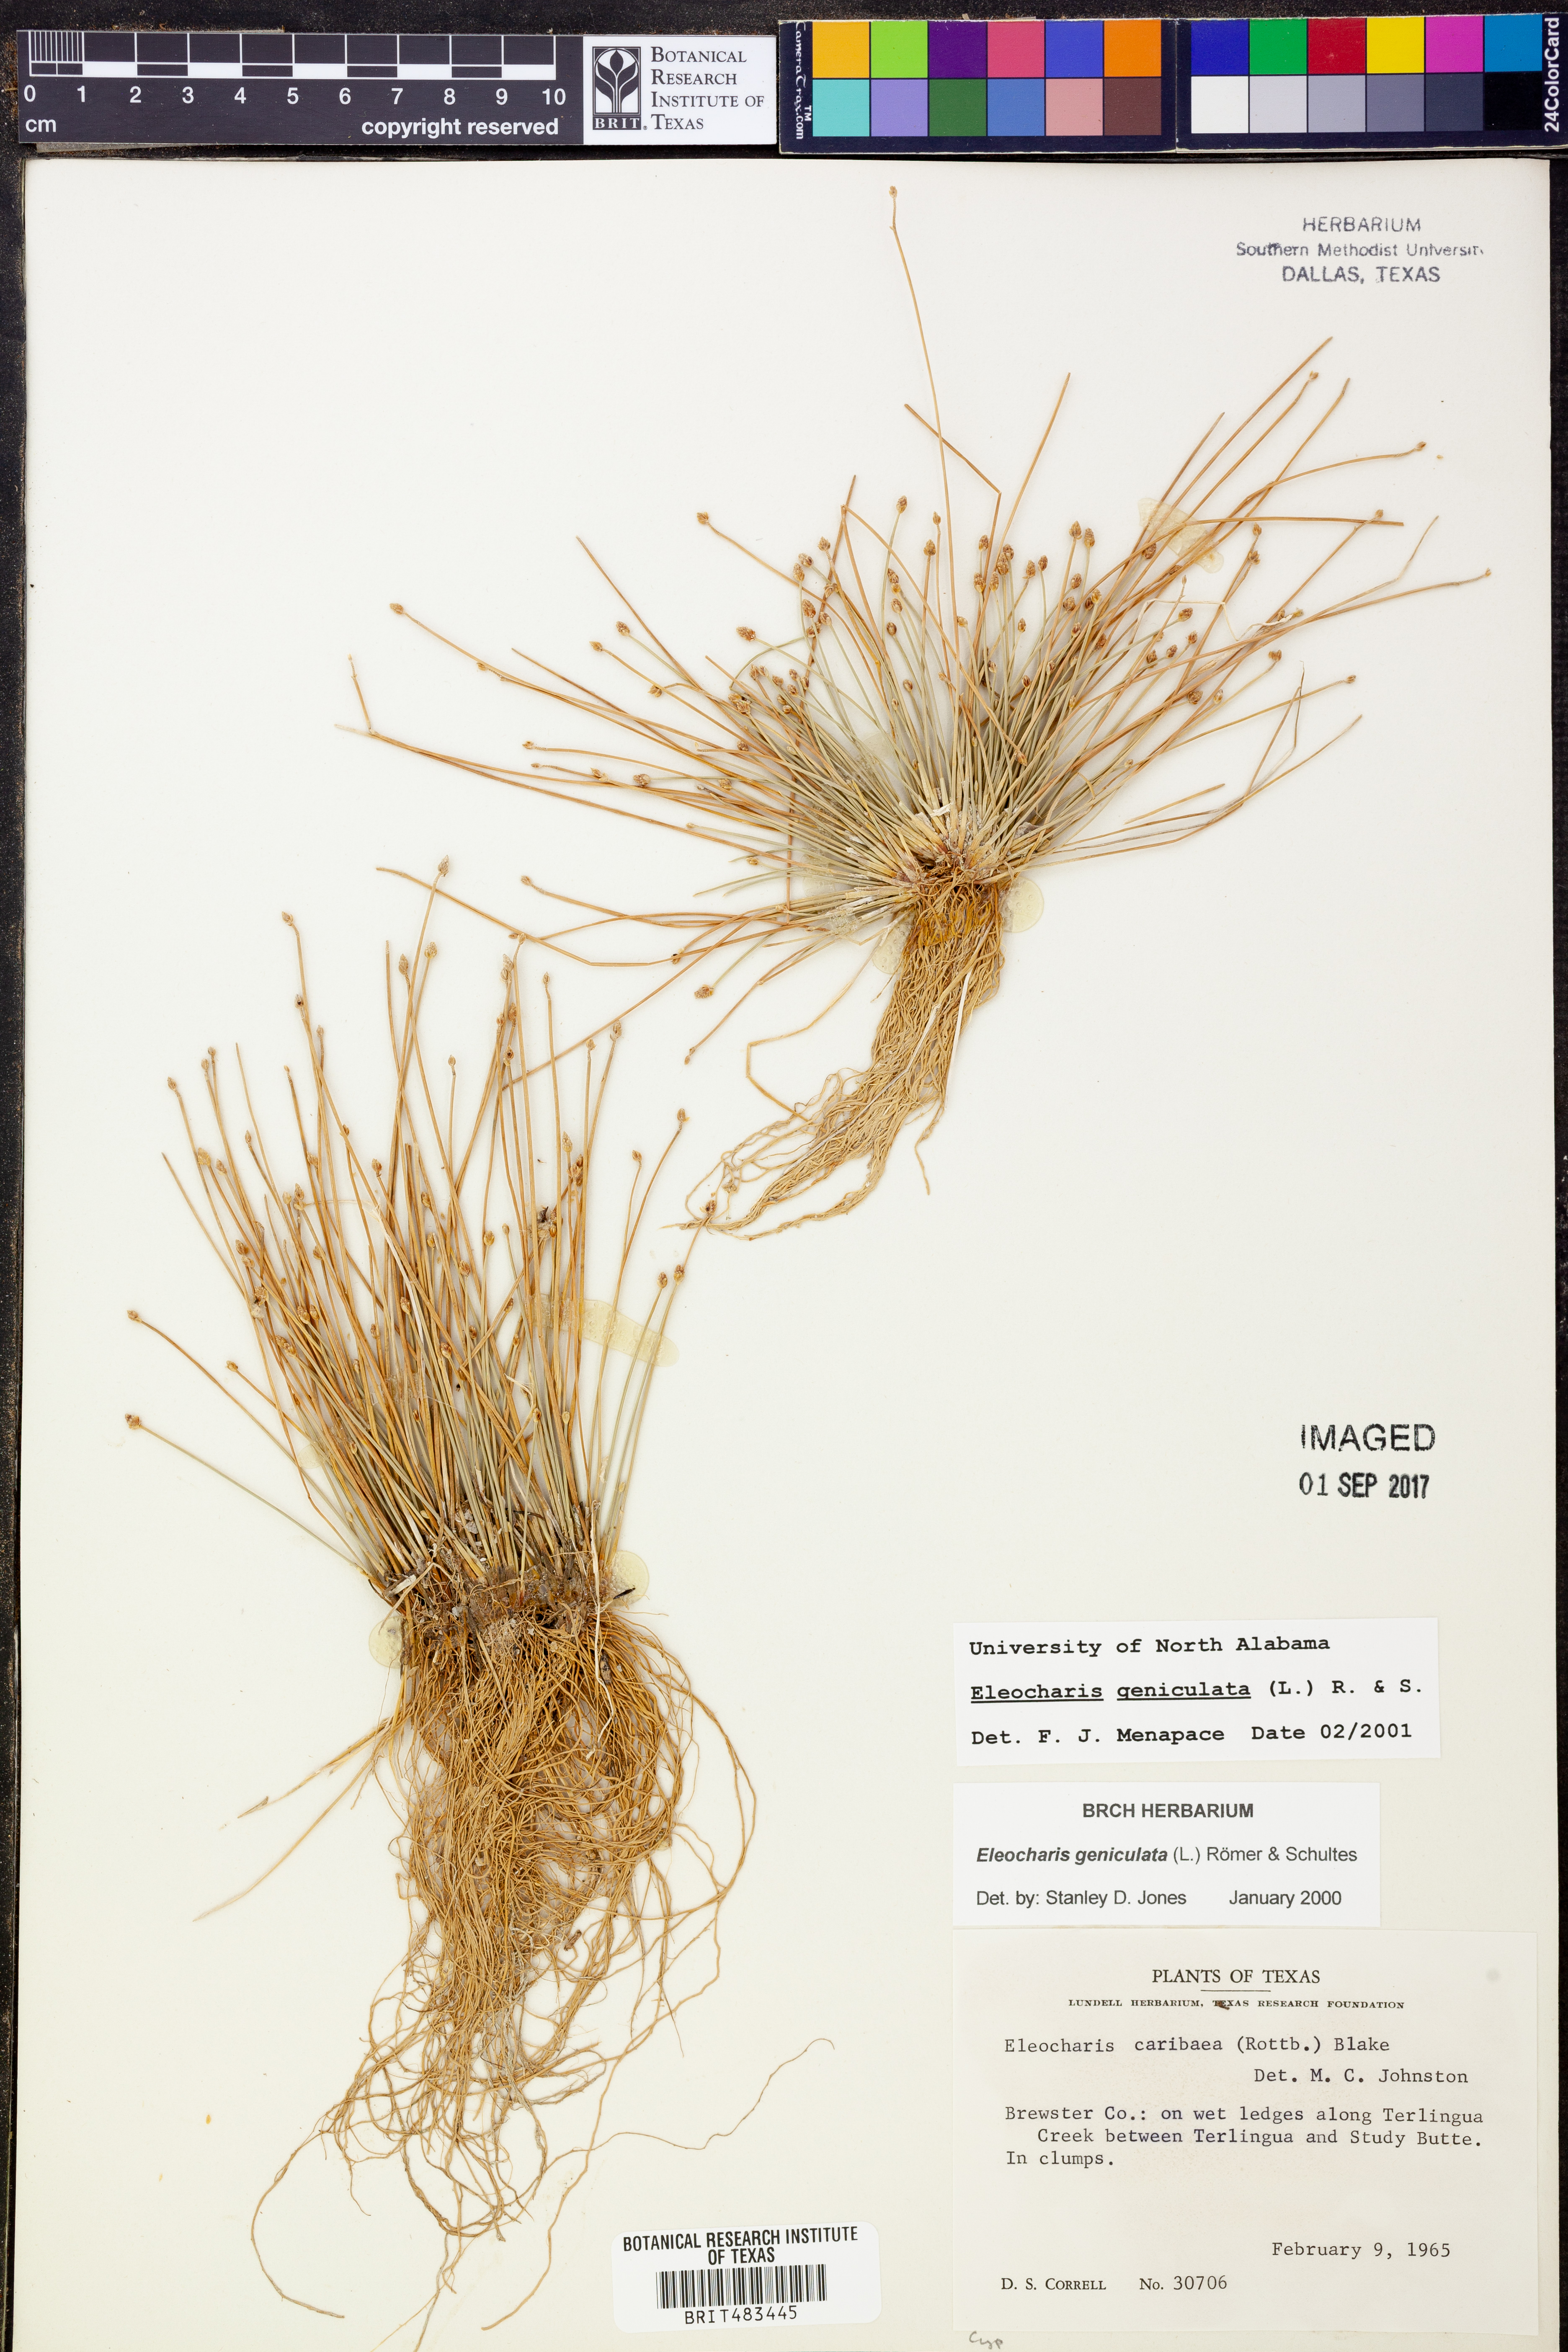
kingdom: Plantae
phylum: Tracheophyta
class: Liliopsida
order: Poales
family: Cyperaceae
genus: Eleocharis
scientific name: Eleocharis geniculata
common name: Canada spikesedge
